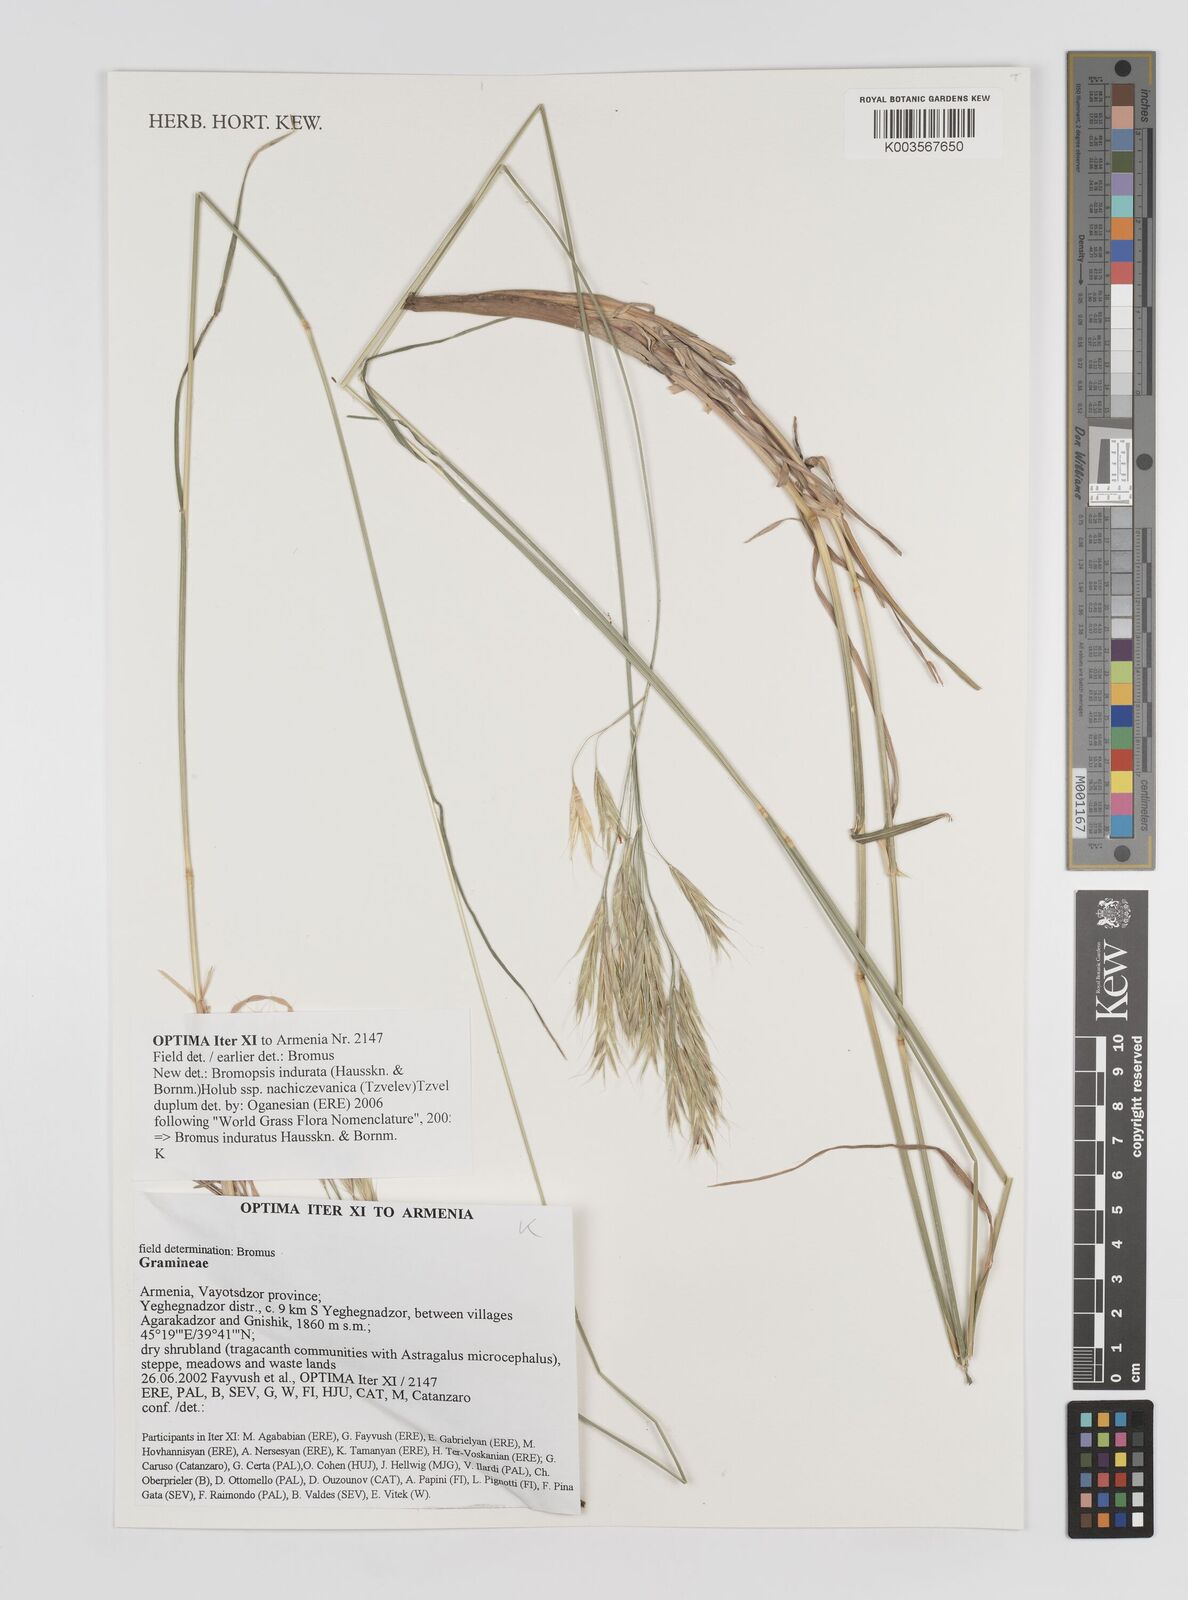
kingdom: Plantae
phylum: Tracheophyta
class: Liliopsida
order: Poales
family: Poaceae
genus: Bromus
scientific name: Bromus induratus
